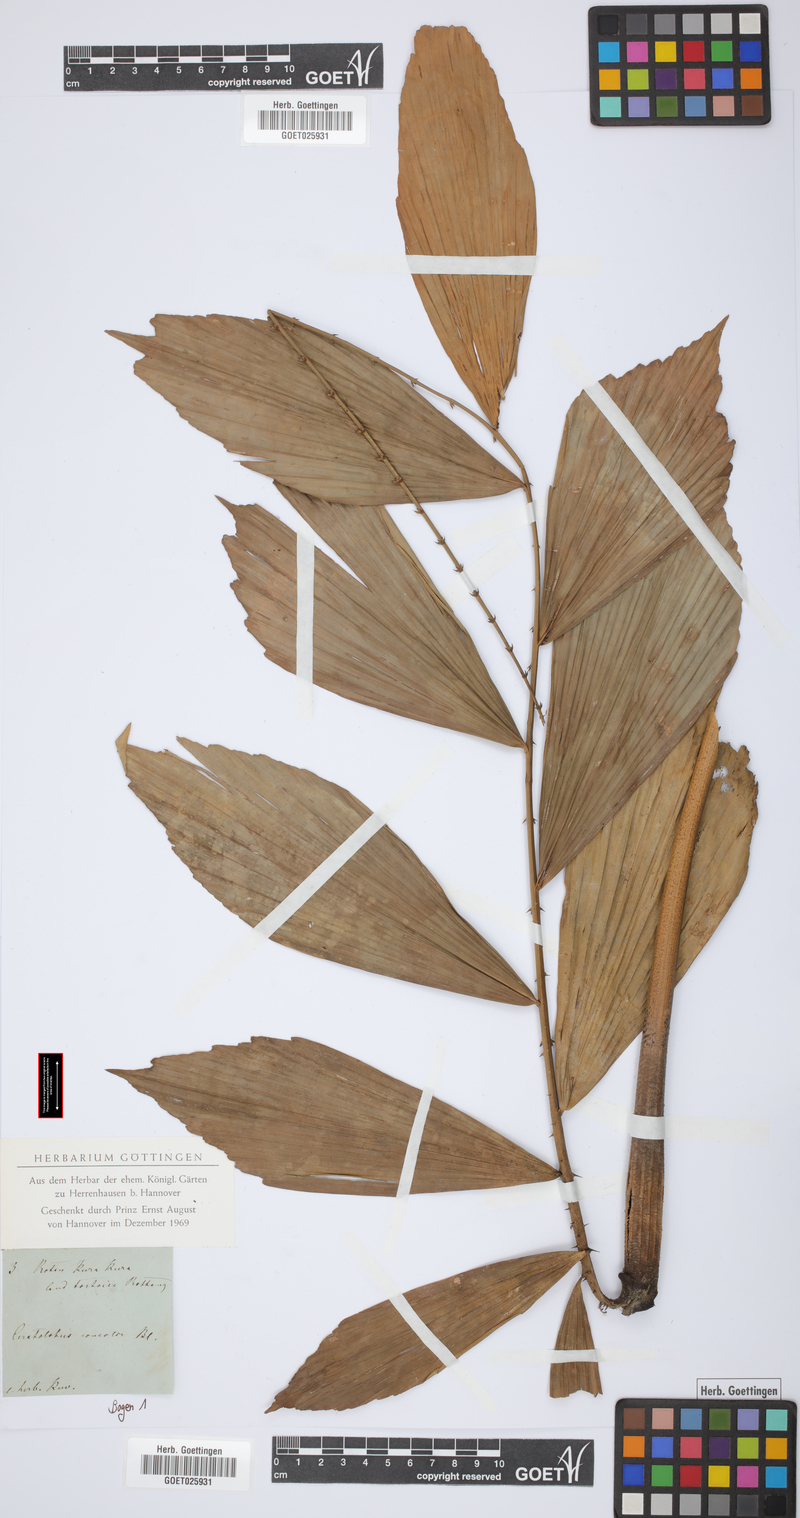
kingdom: Plantae
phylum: Tracheophyta
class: Liliopsida
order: Arecales
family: Arecaceae
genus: Calamus
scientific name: Calamus concolor
